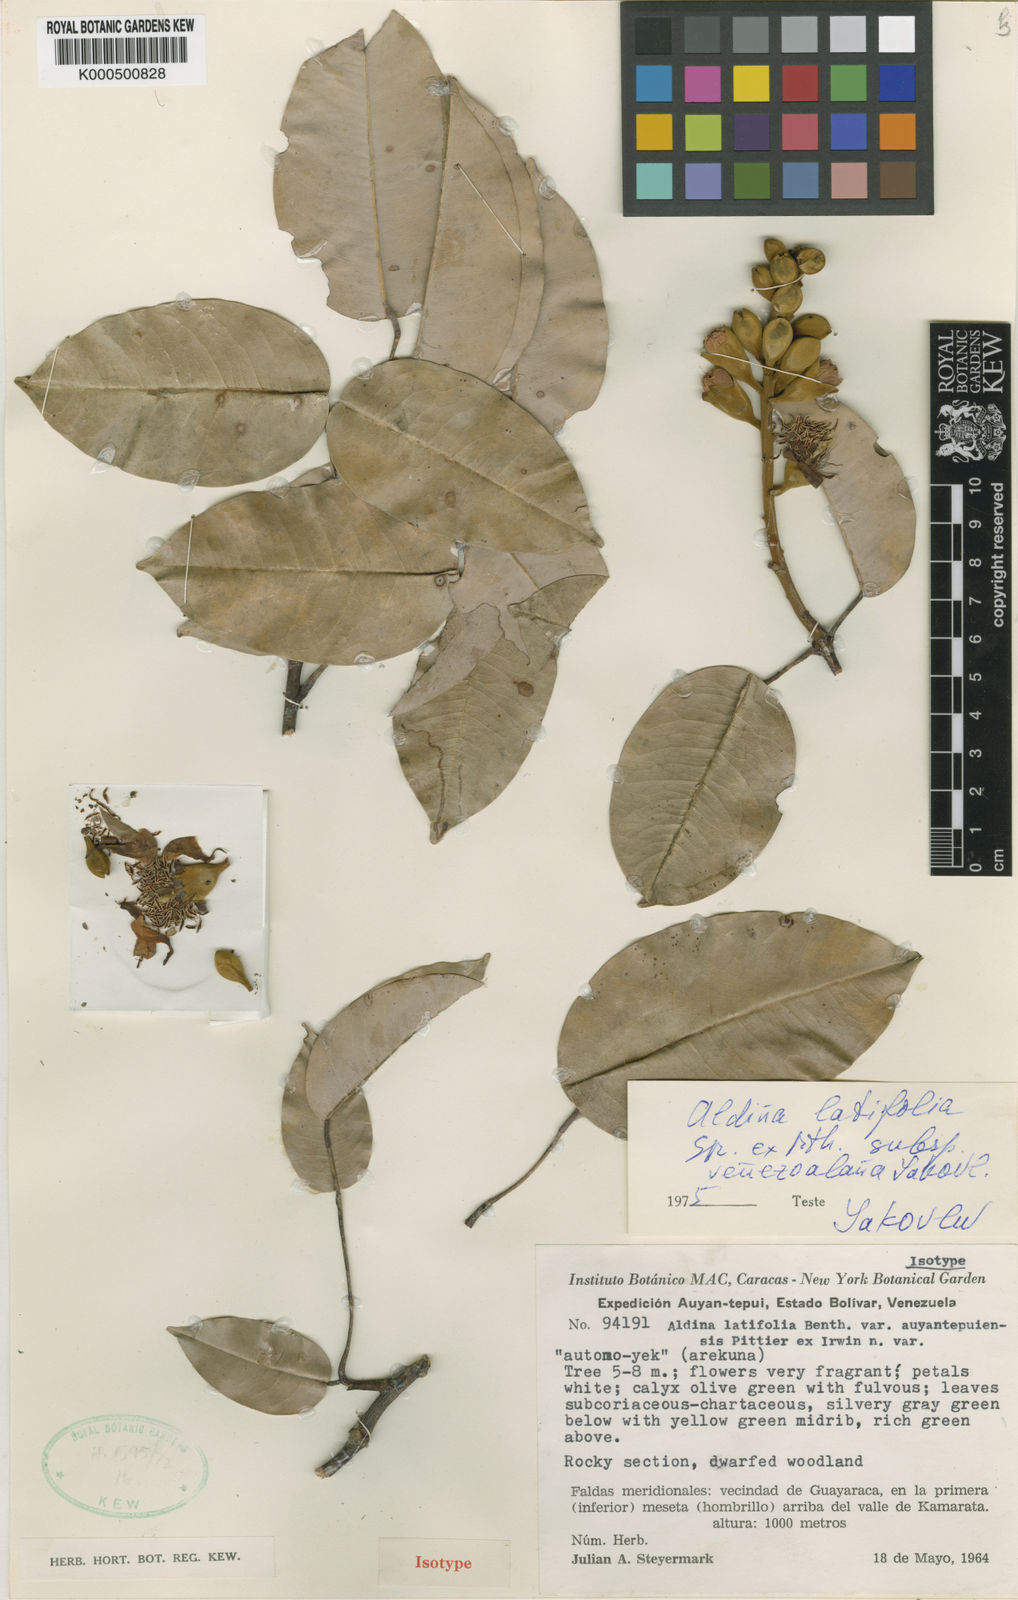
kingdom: Plantae
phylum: Tracheophyta
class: Magnoliopsida
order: Fabales
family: Fabaceae
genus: Aldina
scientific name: Aldina latifolia
